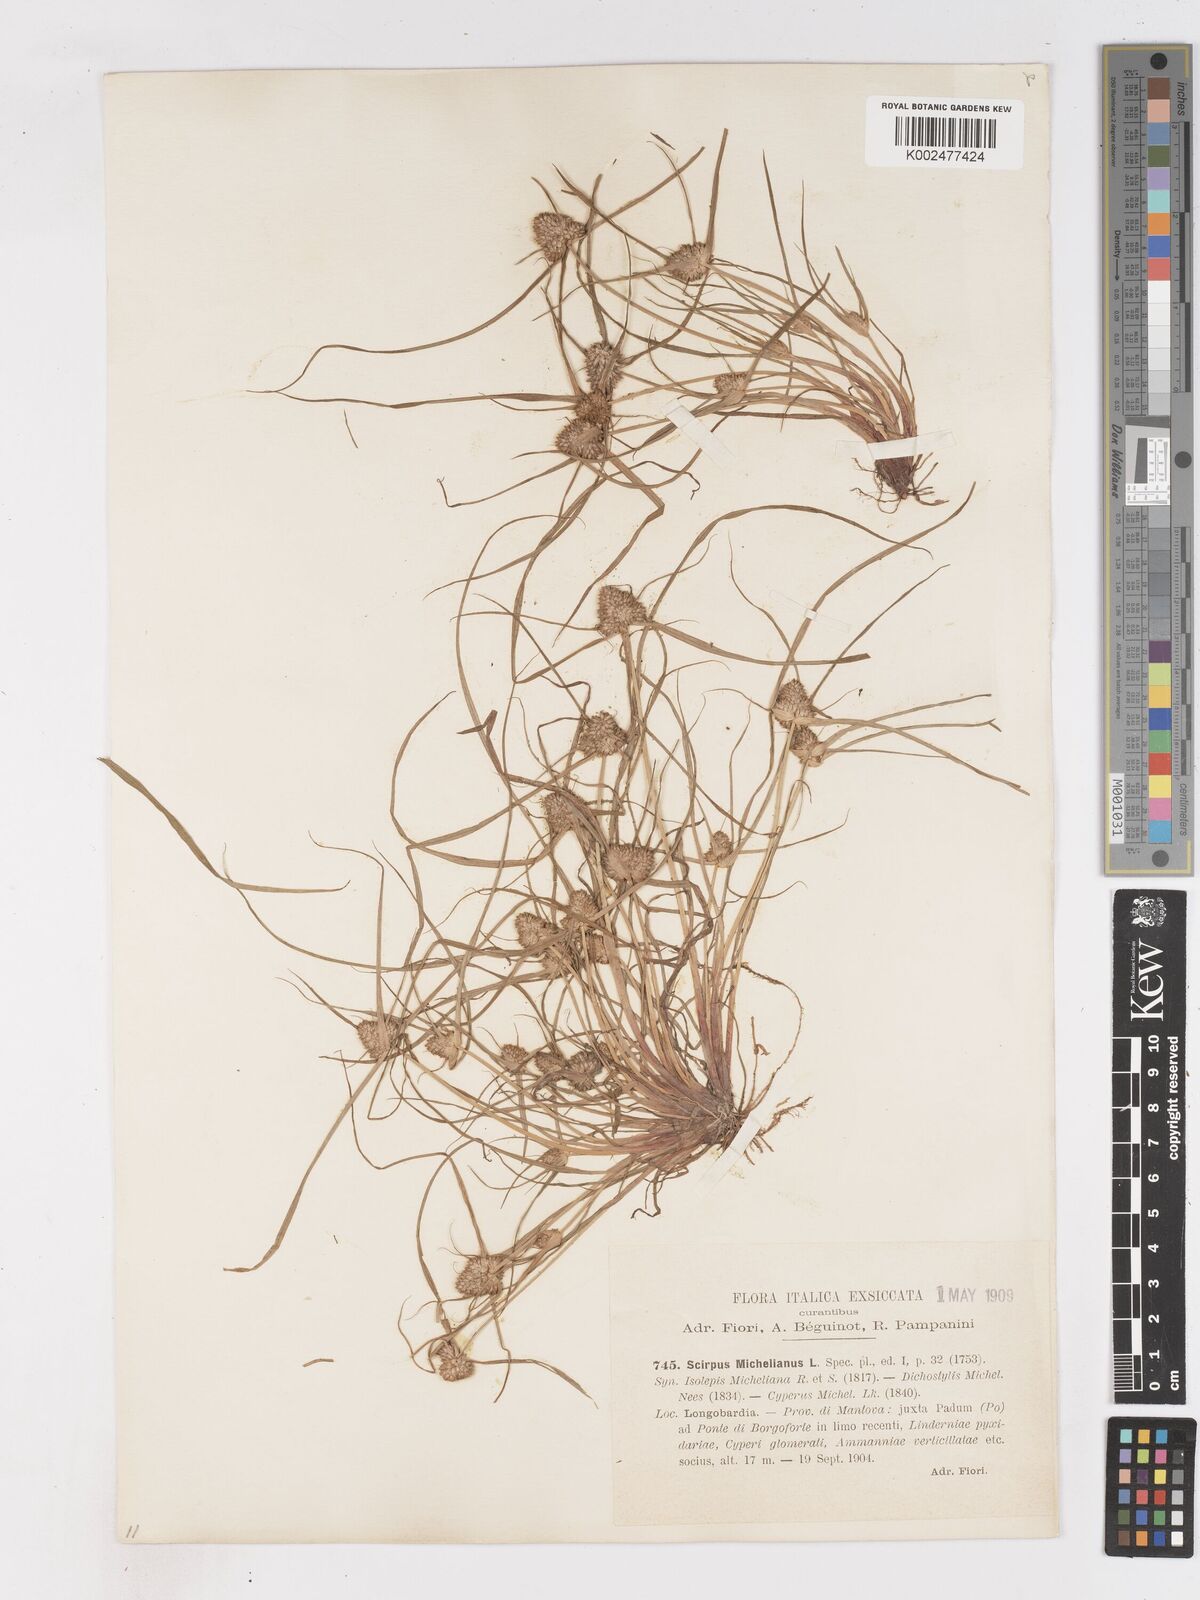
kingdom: Plantae
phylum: Tracheophyta
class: Liliopsida
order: Poales
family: Cyperaceae
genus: Cyperus
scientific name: Cyperus michelianus
